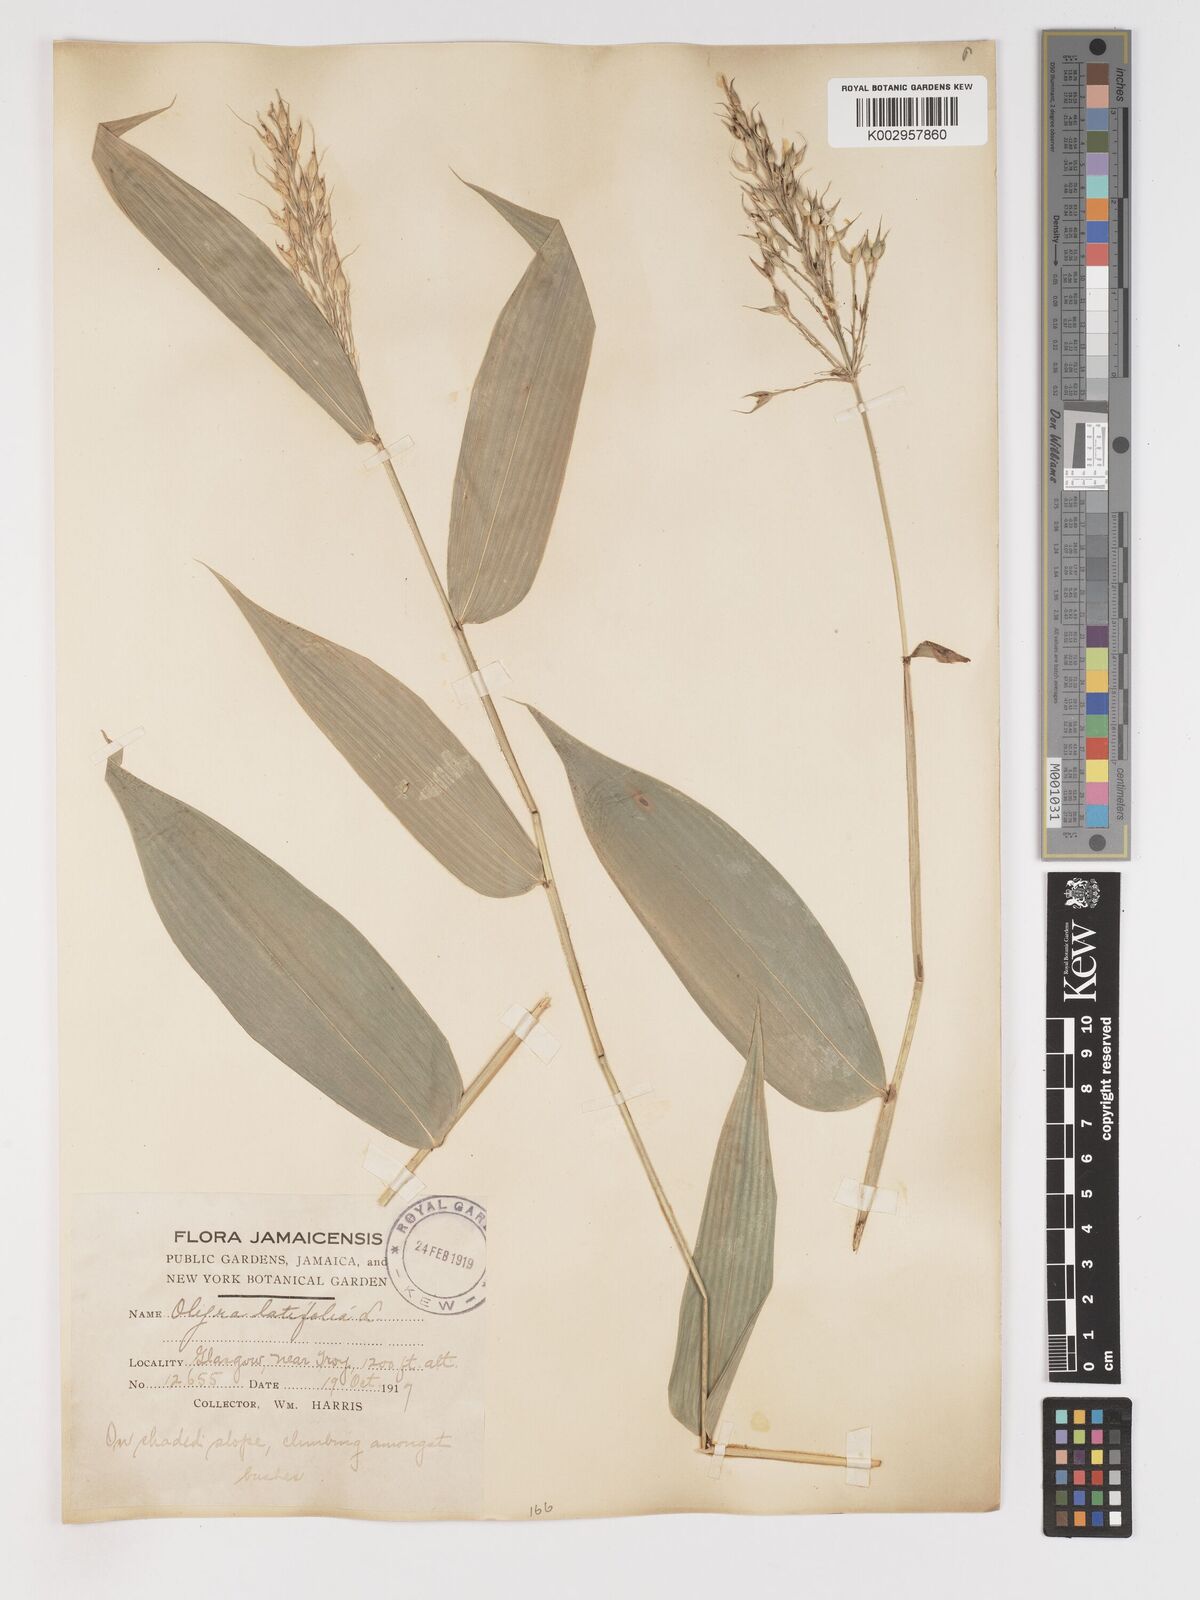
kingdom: Plantae
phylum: Tracheophyta
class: Liliopsida
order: Poales
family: Poaceae
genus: Olyra
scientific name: Olyra latifolia
